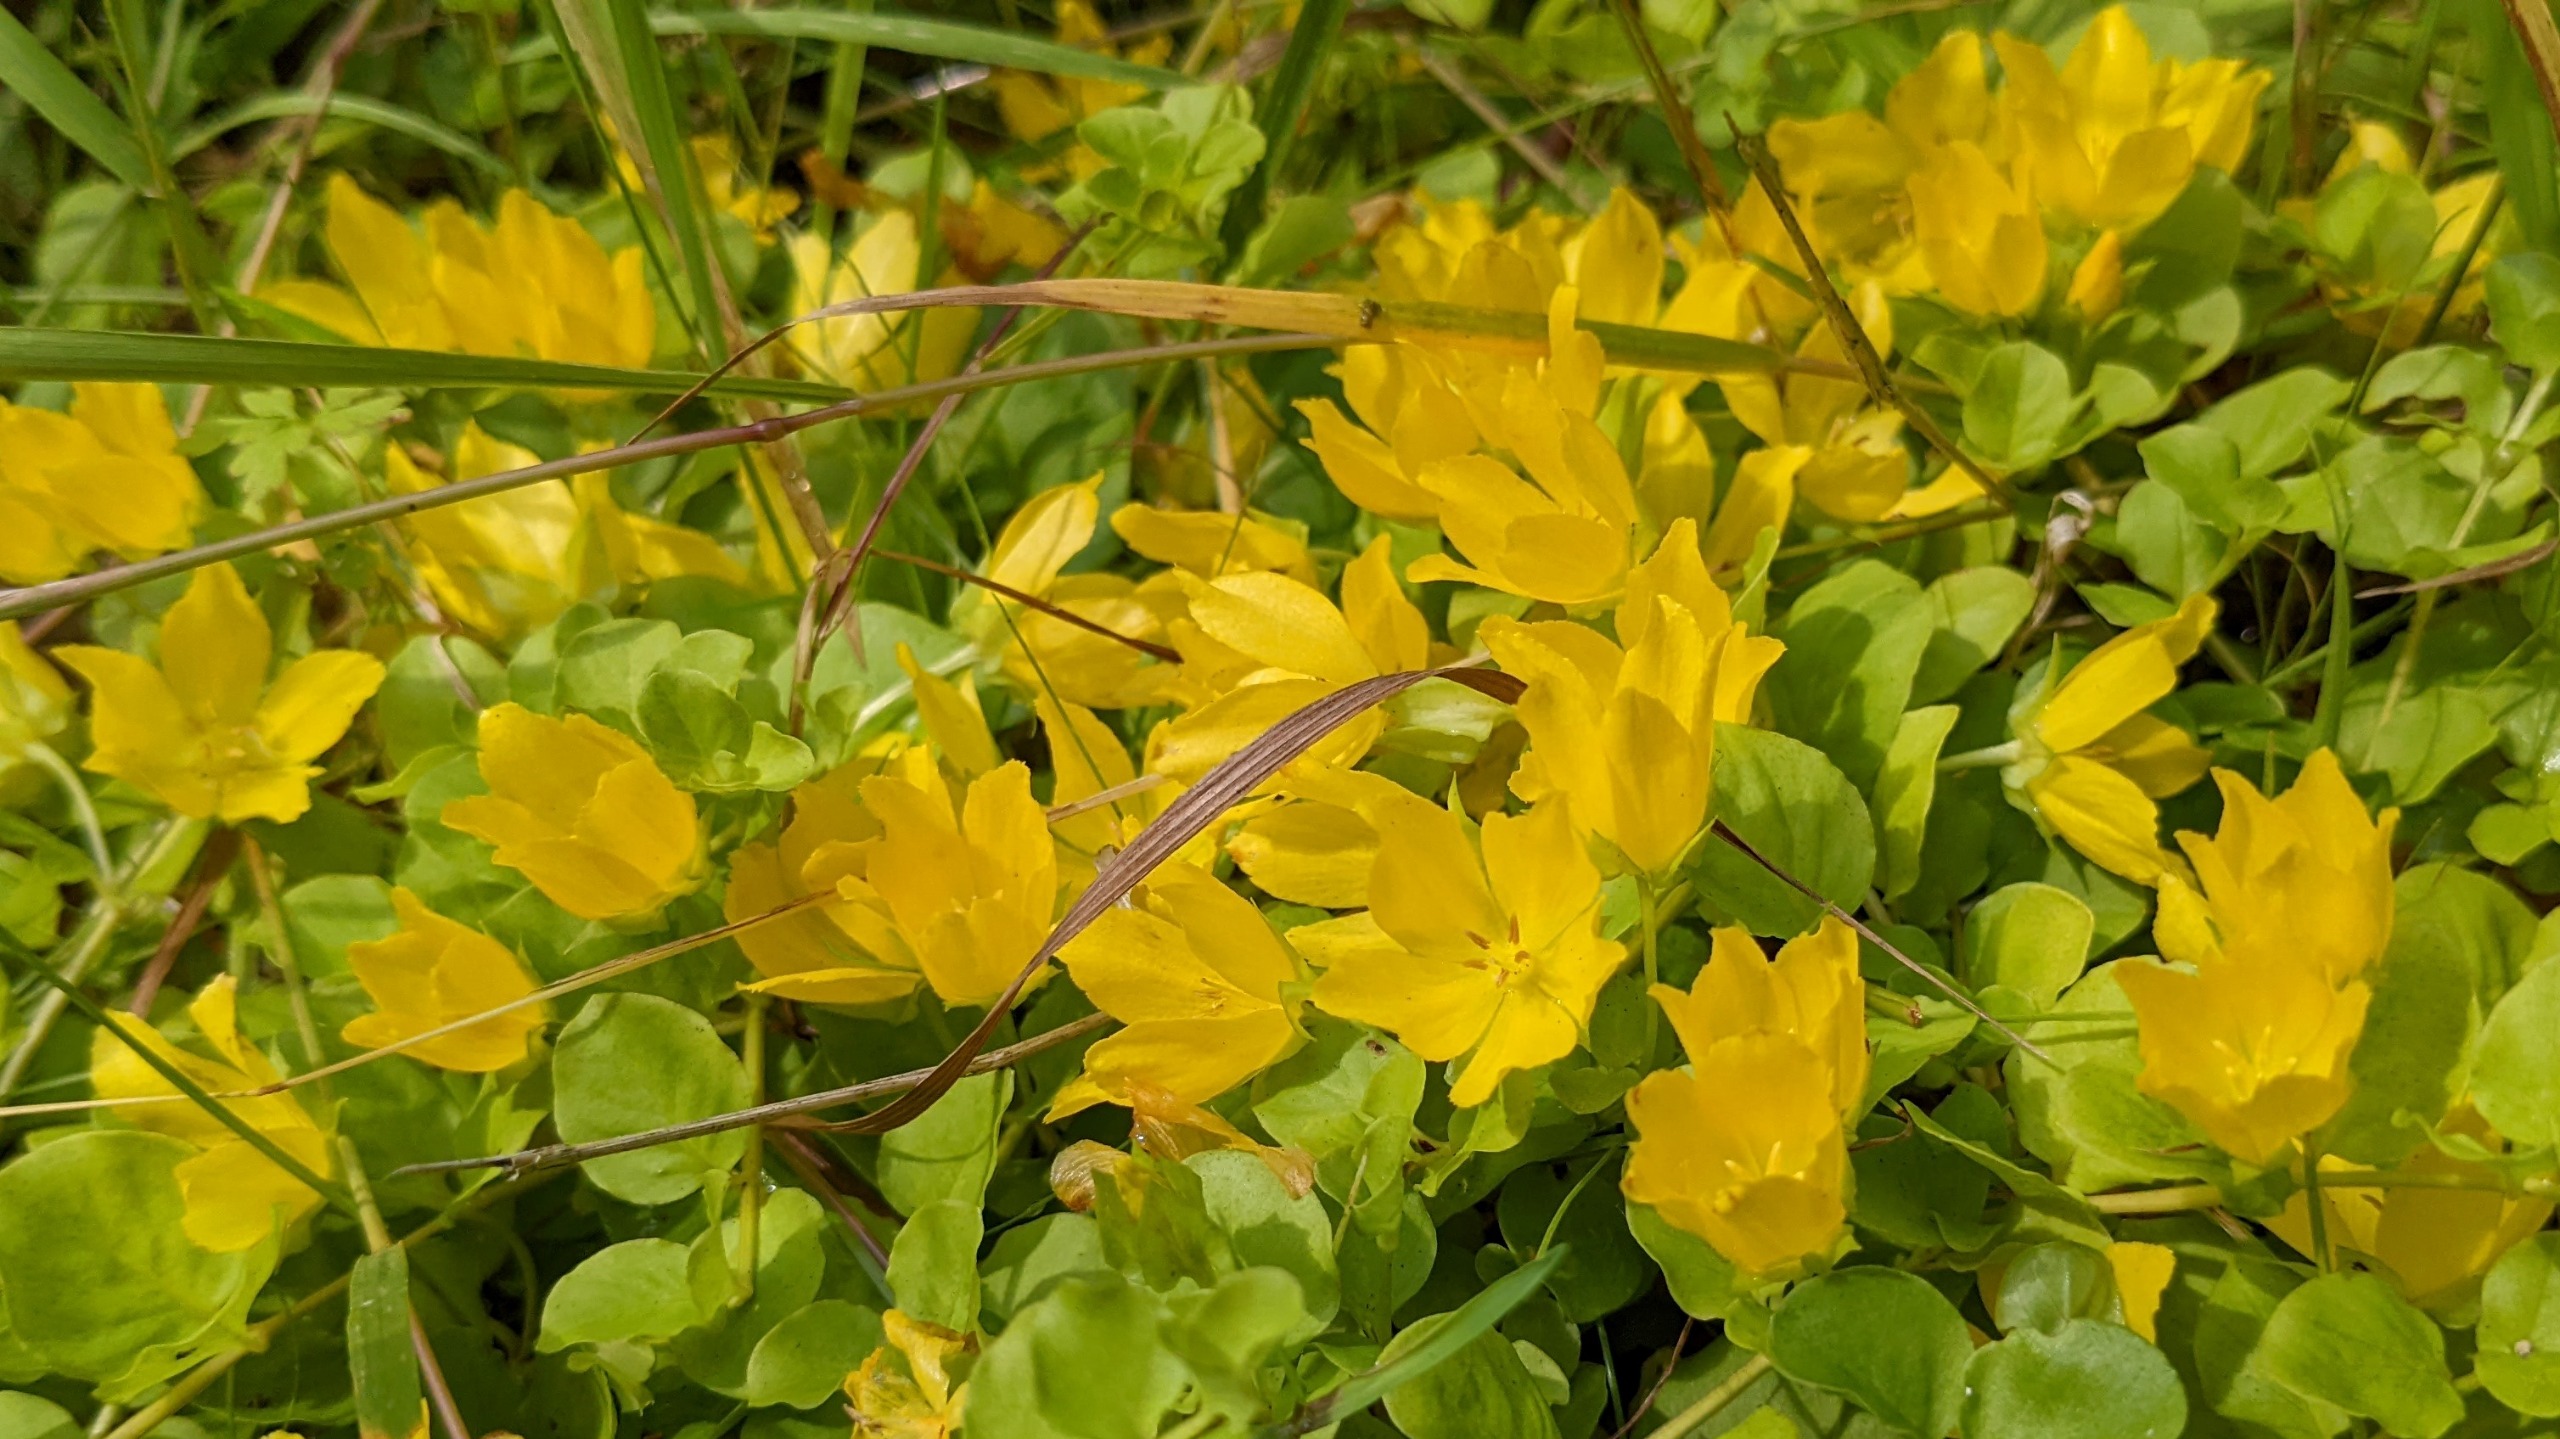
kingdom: Plantae
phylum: Tracheophyta
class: Magnoliopsida
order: Ericales
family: Primulaceae
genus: Lysimachia
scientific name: Lysimachia nummularia
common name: Pengebladet fredløs
